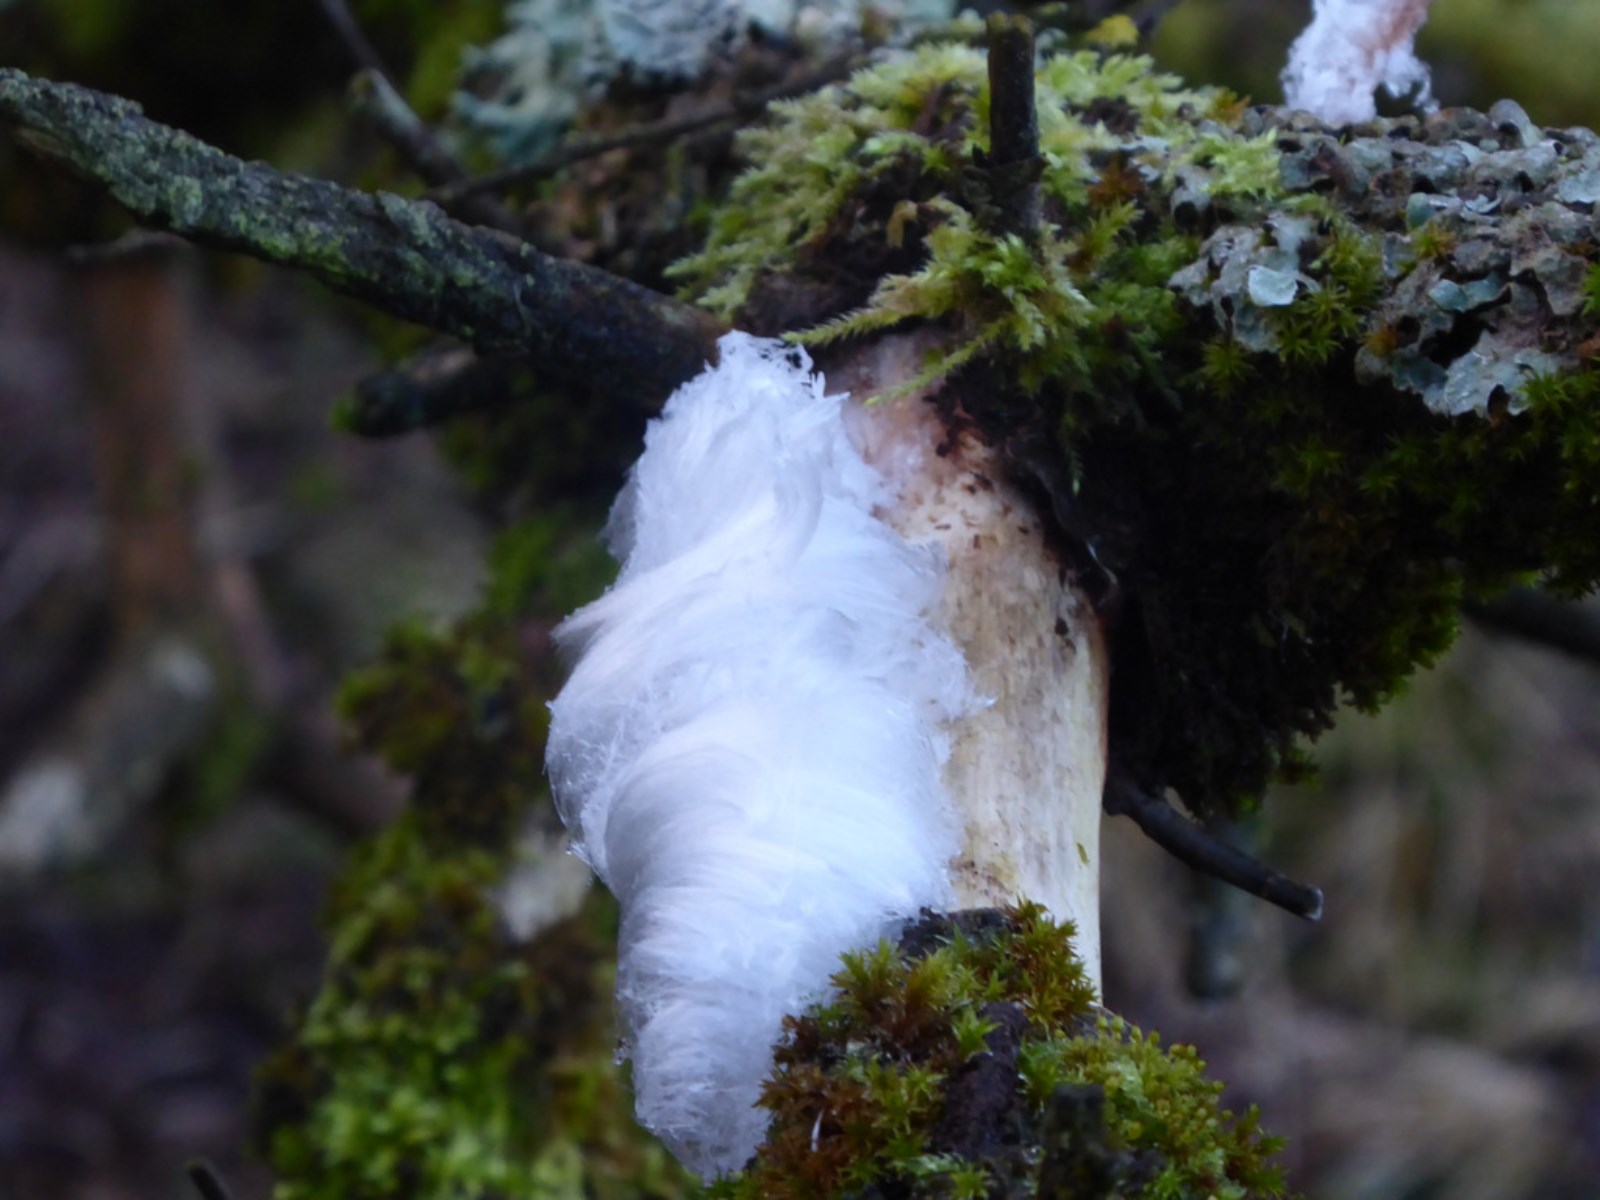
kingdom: Fungi
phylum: Basidiomycota
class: Tremellomycetes
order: Tremellales
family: Exidiaceae
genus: Exidiopsis
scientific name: Exidiopsis effusa
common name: smuk bævrehinde
